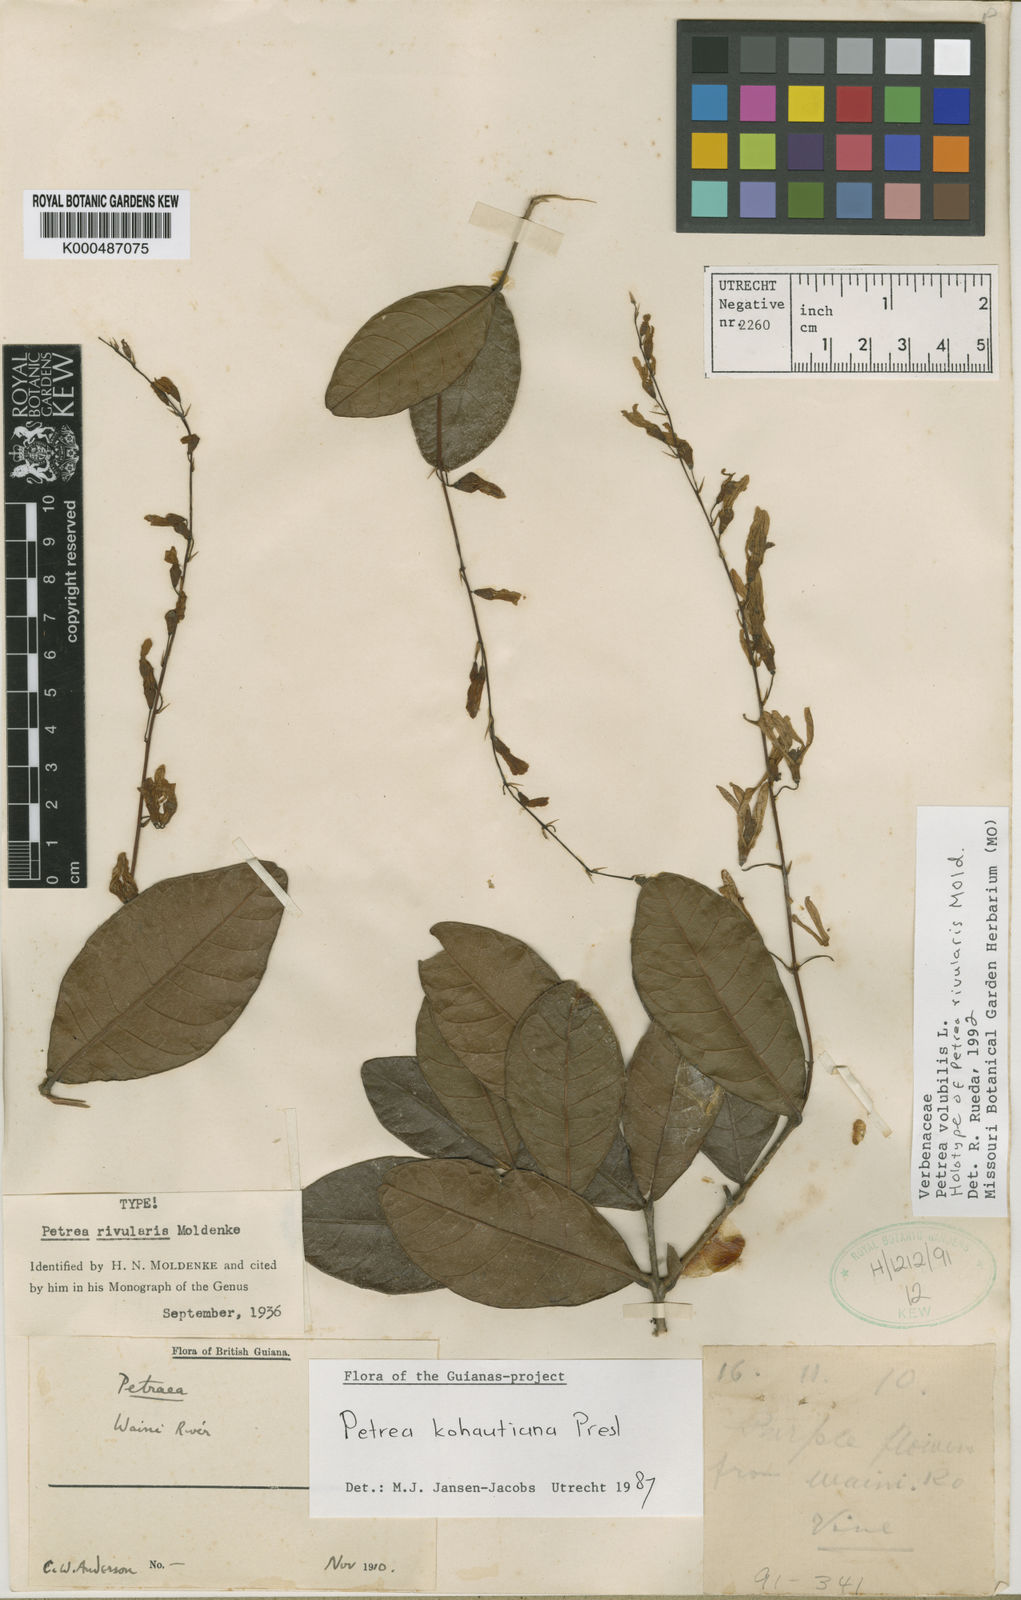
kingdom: Plantae
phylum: Tracheophyta
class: Magnoliopsida
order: Lamiales
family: Verbenaceae
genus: Petrea
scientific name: Petrea volubilis
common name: Queen's-wreath
